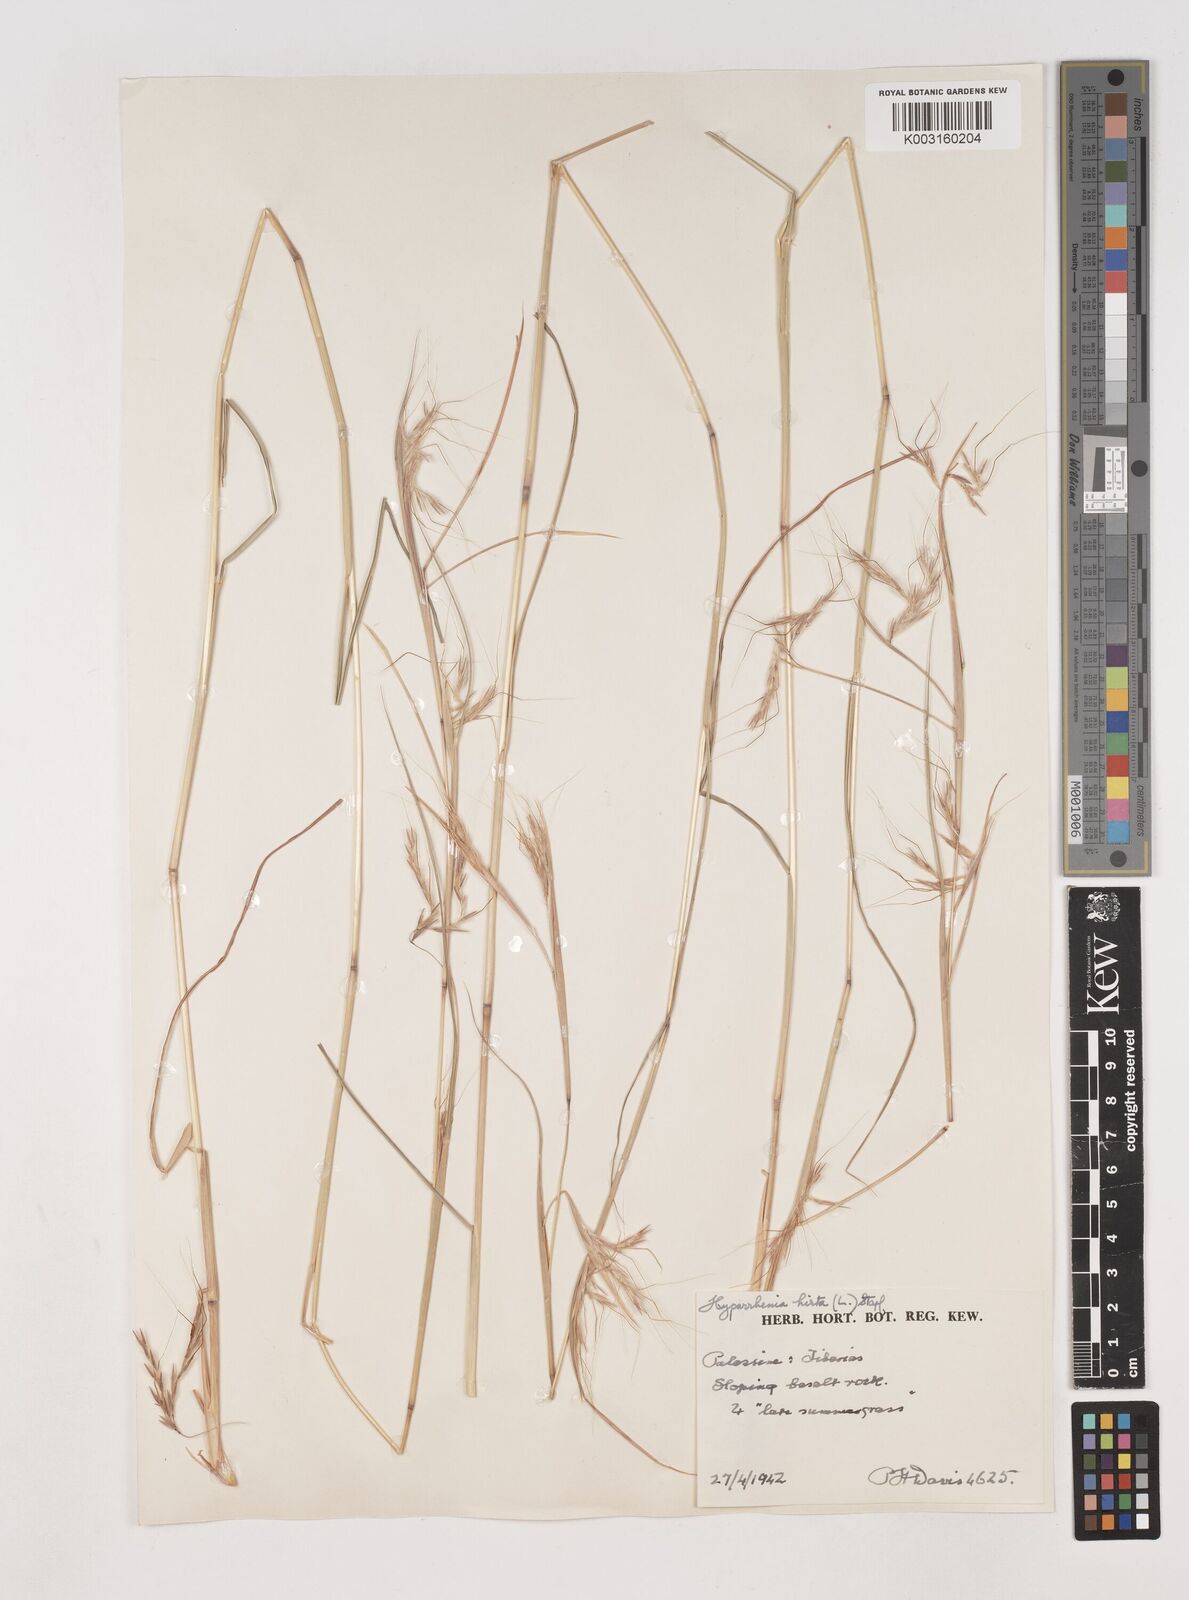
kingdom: Plantae
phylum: Tracheophyta
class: Liliopsida
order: Poales
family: Poaceae
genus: Hyparrhenia
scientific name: Hyparrhenia hirta
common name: Thatching grass
